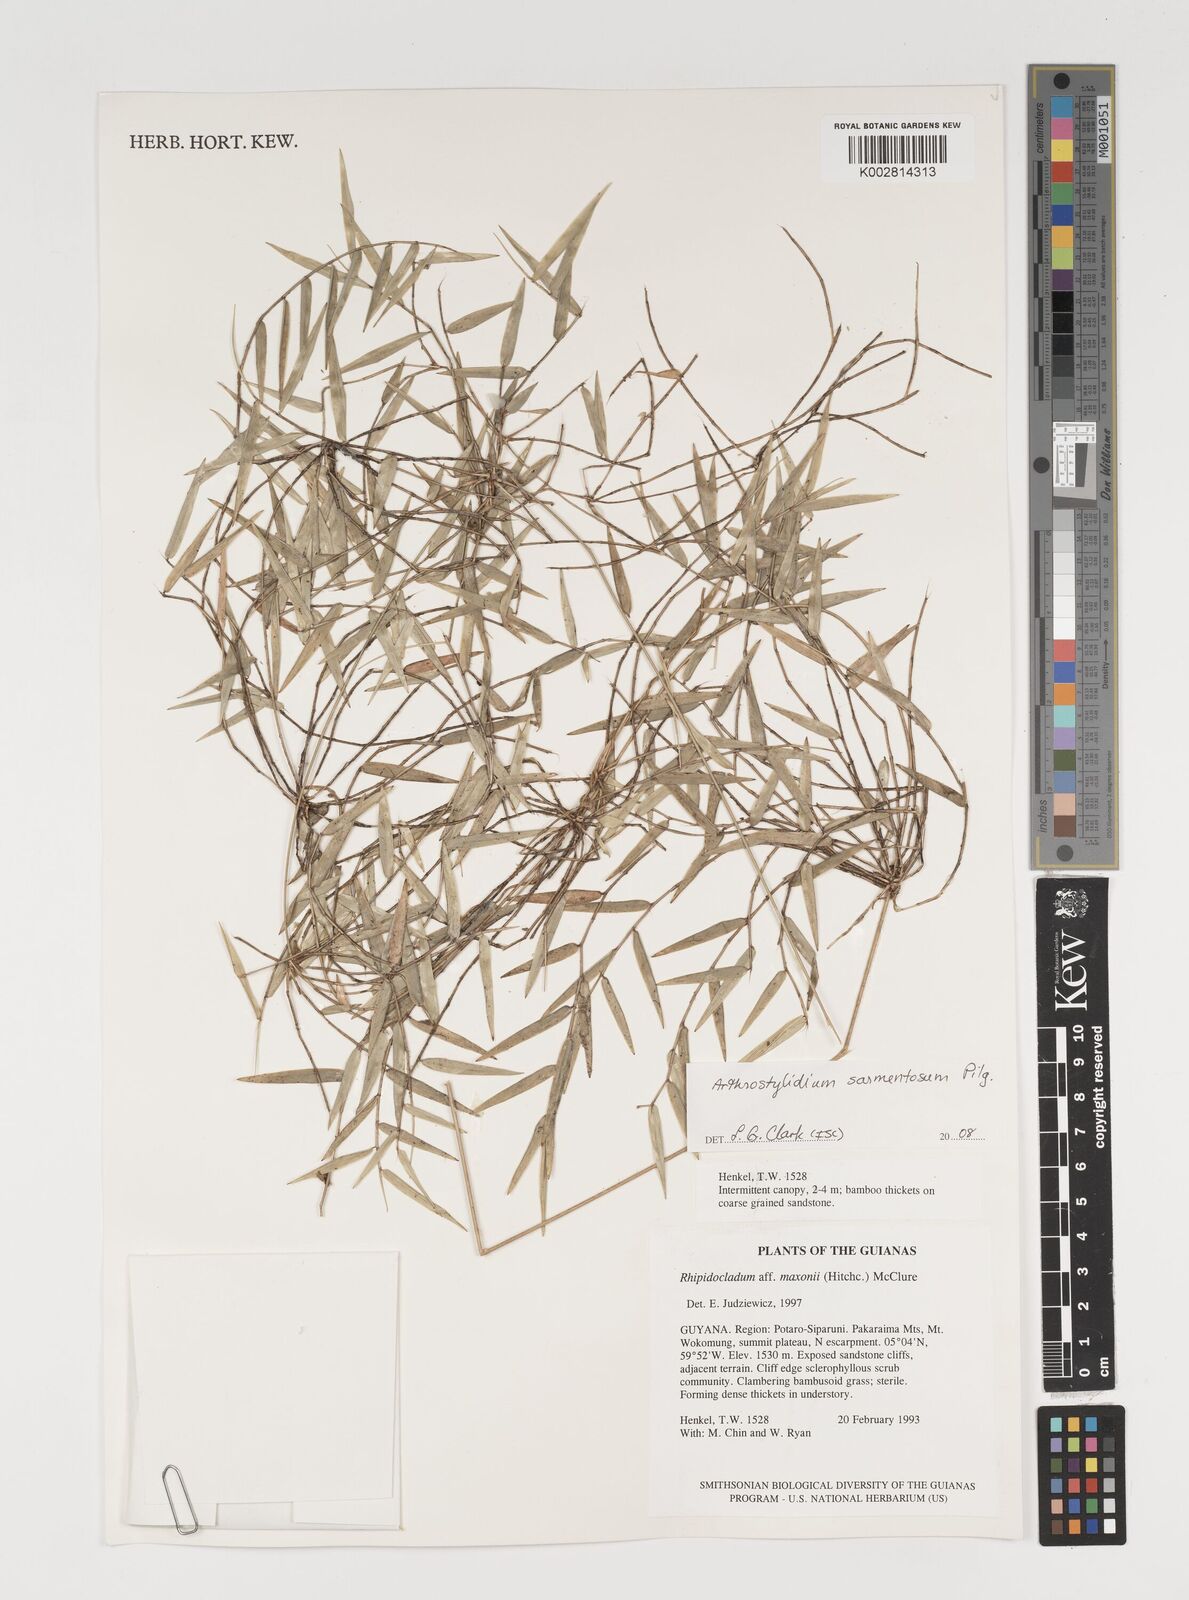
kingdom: Plantae
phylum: Tracheophyta
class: Liliopsida
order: Poales
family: Poaceae
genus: Arthrostylidium
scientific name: Arthrostylidium sarmentosum
